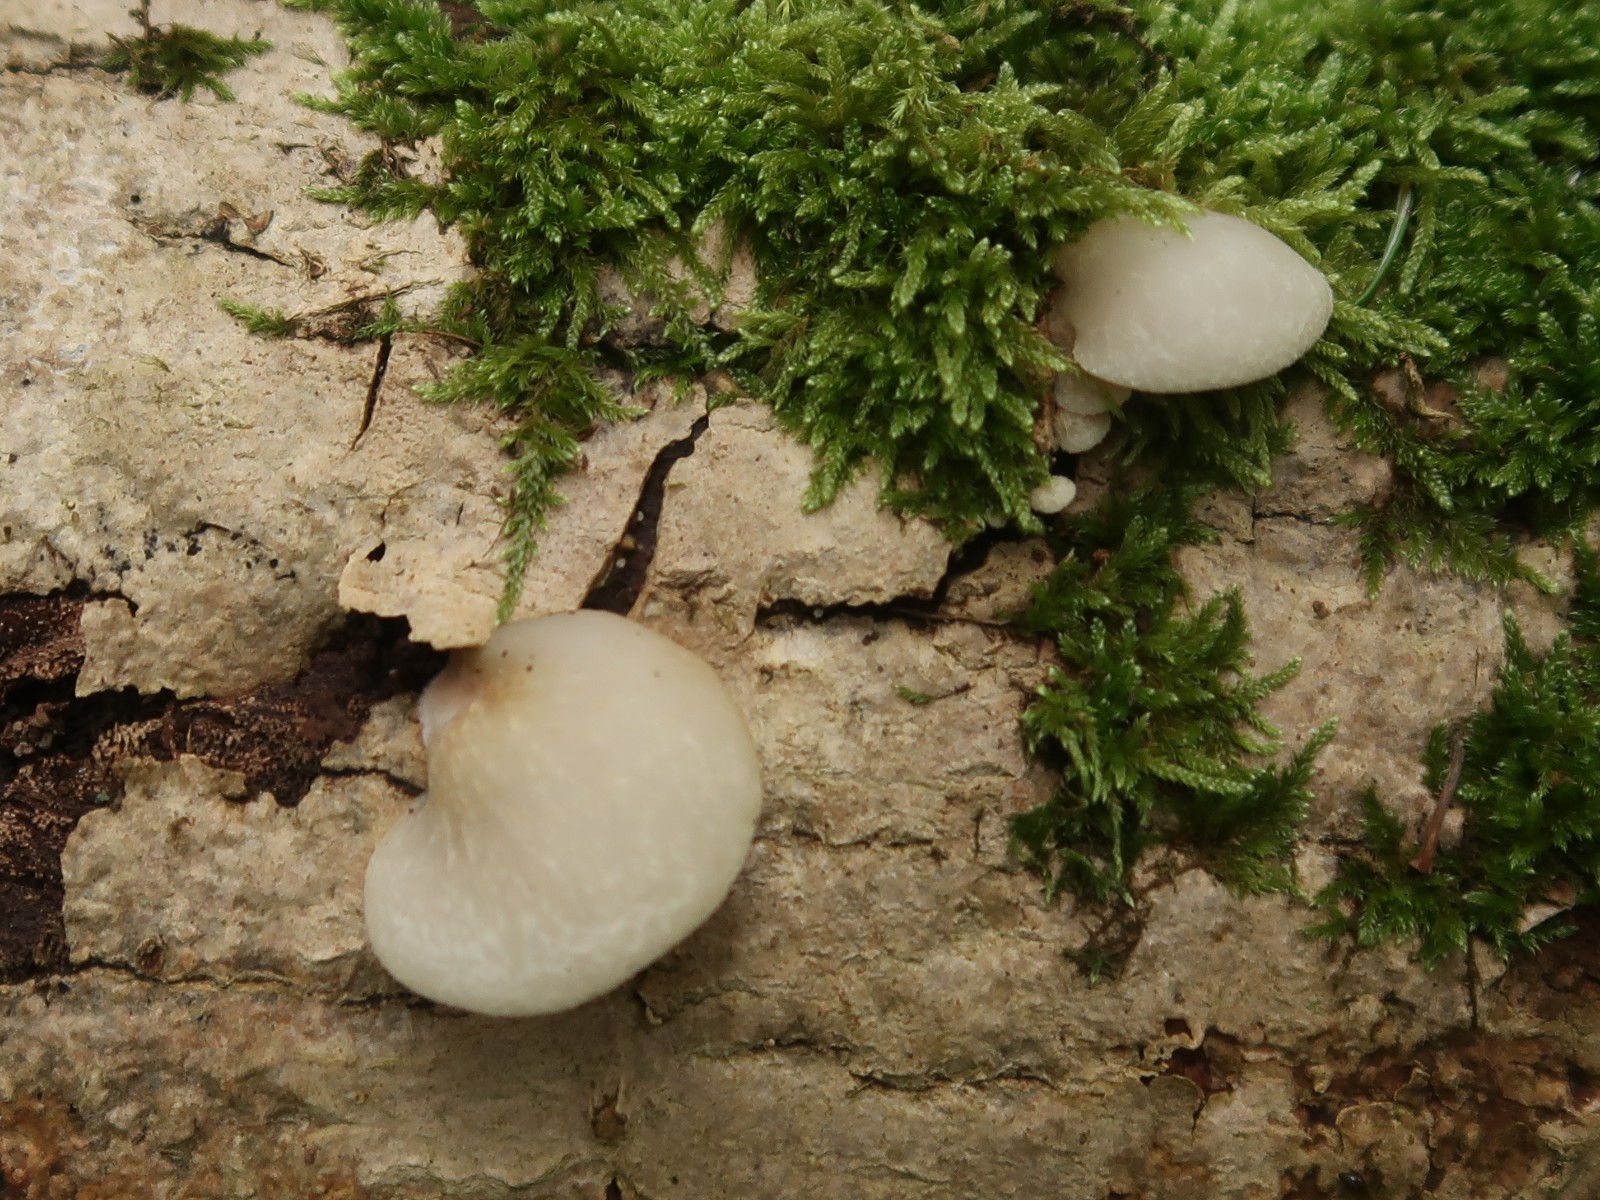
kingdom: Fungi
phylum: Basidiomycota
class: Agaricomycetes
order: Agaricales
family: Crepidotaceae
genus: Crepidotus
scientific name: Crepidotus mollis
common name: blød muslingesvamp
